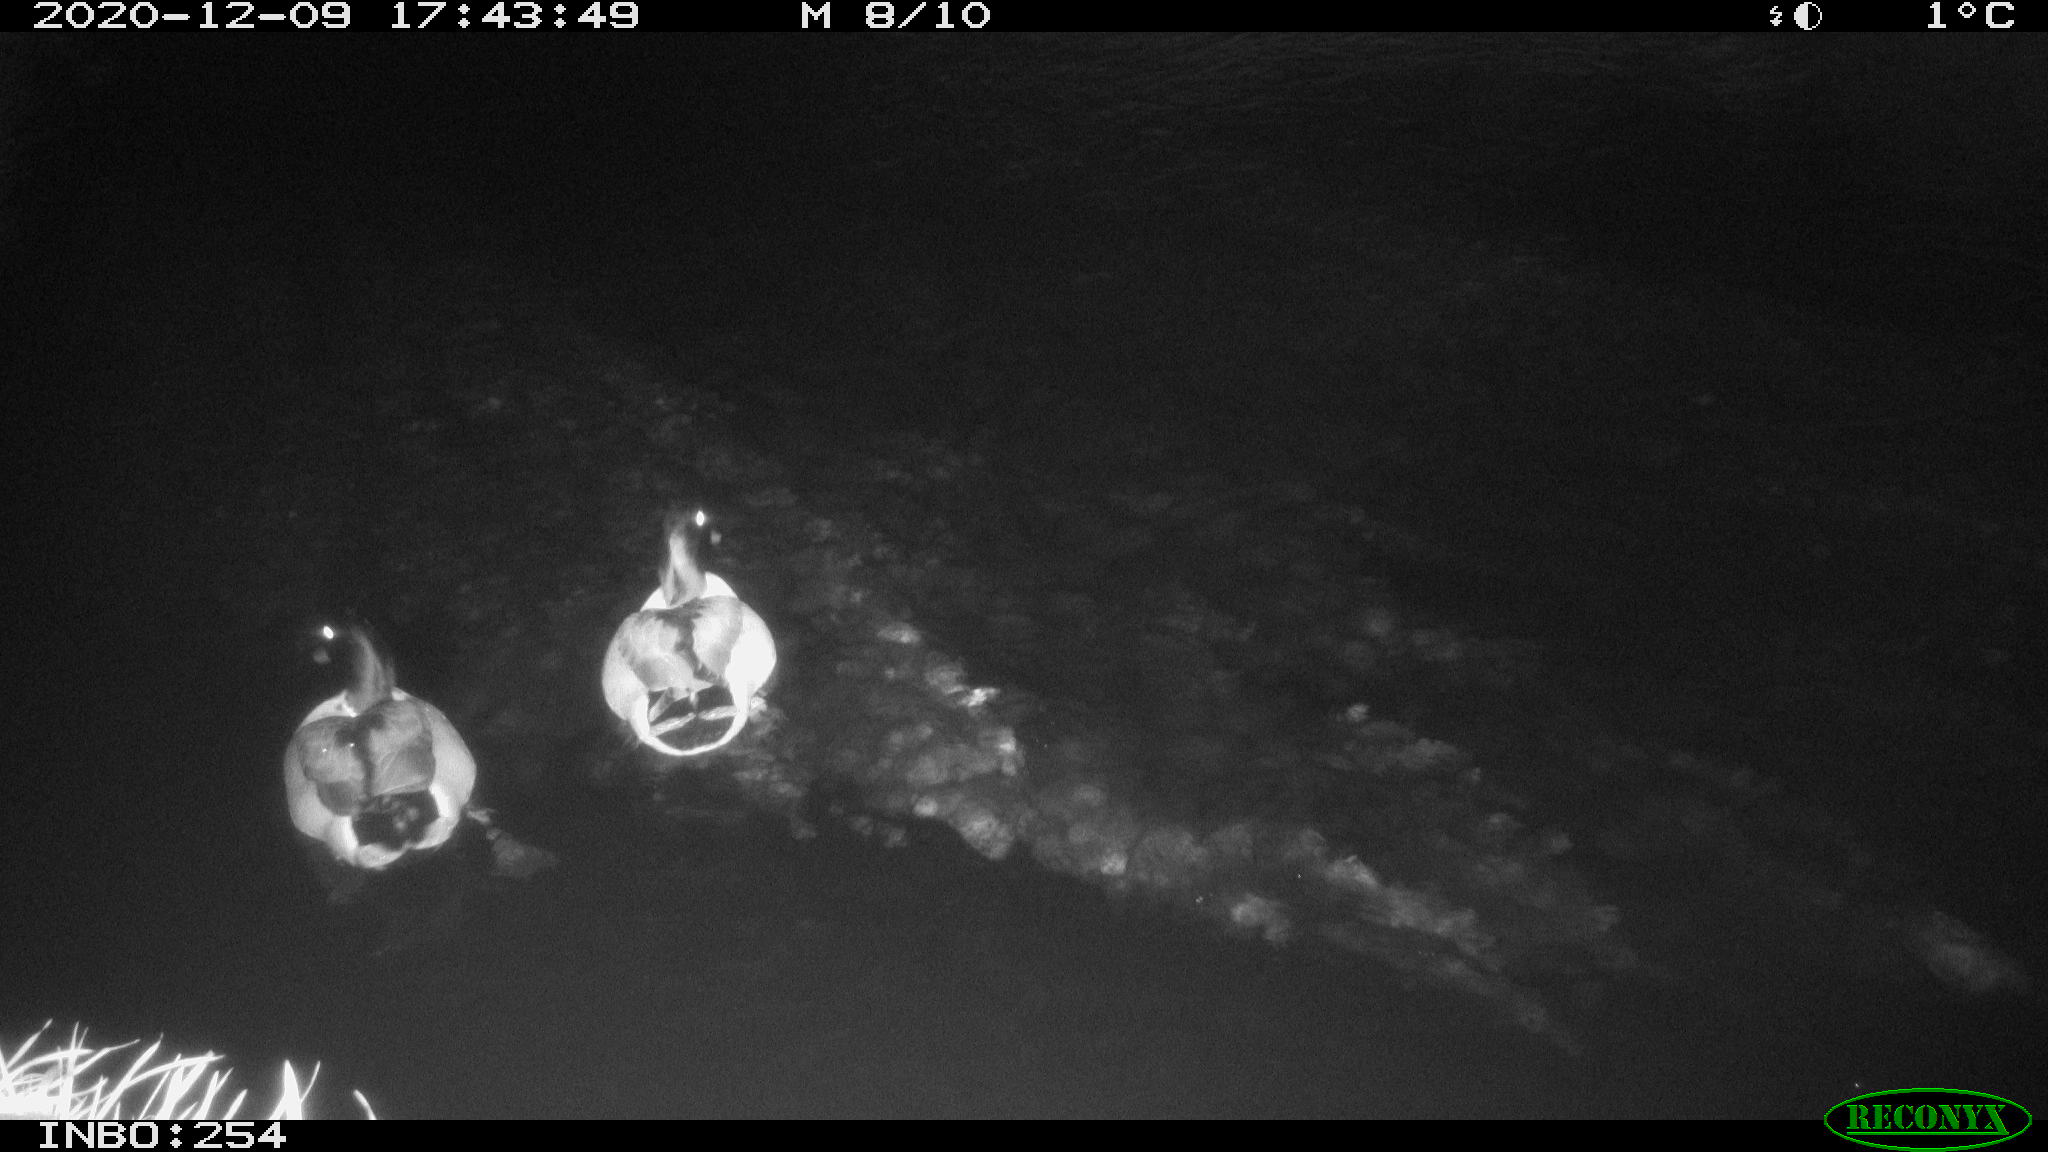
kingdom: Animalia
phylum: Chordata
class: Aves
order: Anseriformes
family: Anatidae
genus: Anas
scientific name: Anas platyrhynchos
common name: Mallard
